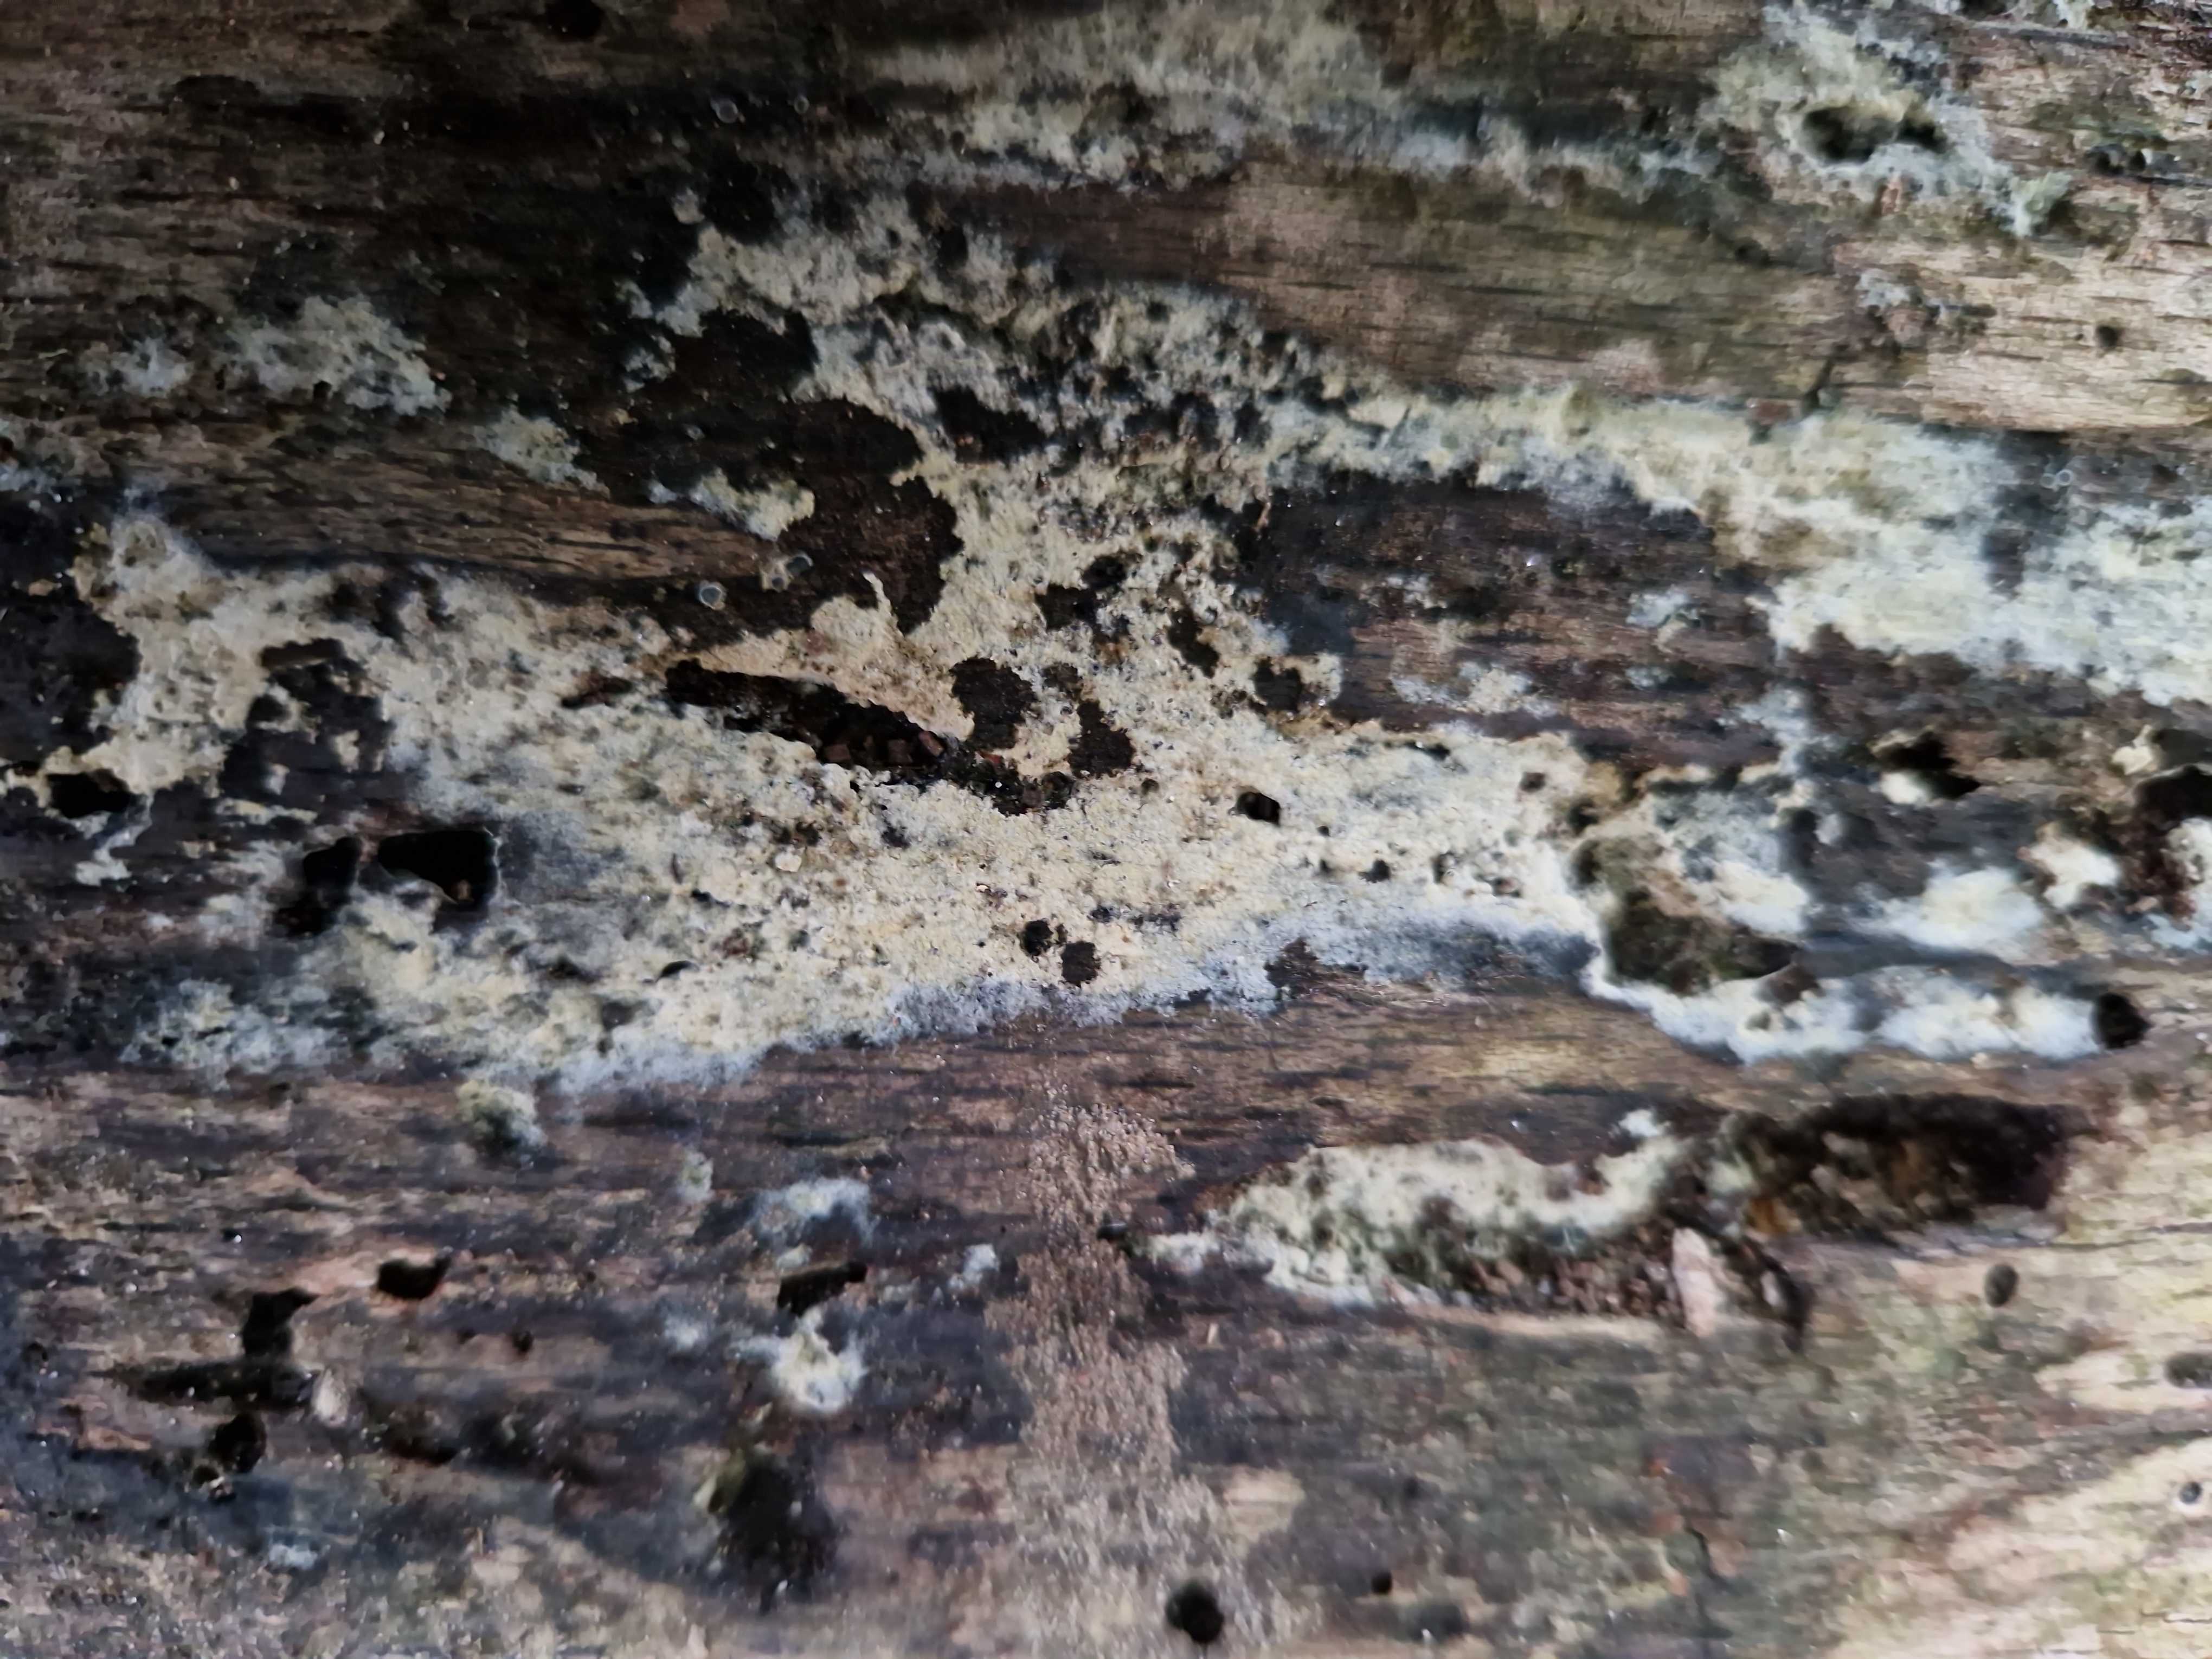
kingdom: Fungi
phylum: Basidiomycota
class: Agaricomycetes
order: Cantharellales
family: Botryobasidiaceae
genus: Botryobasidium
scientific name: Botryobasidium pruinatum
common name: ruhyfet spindhinde
